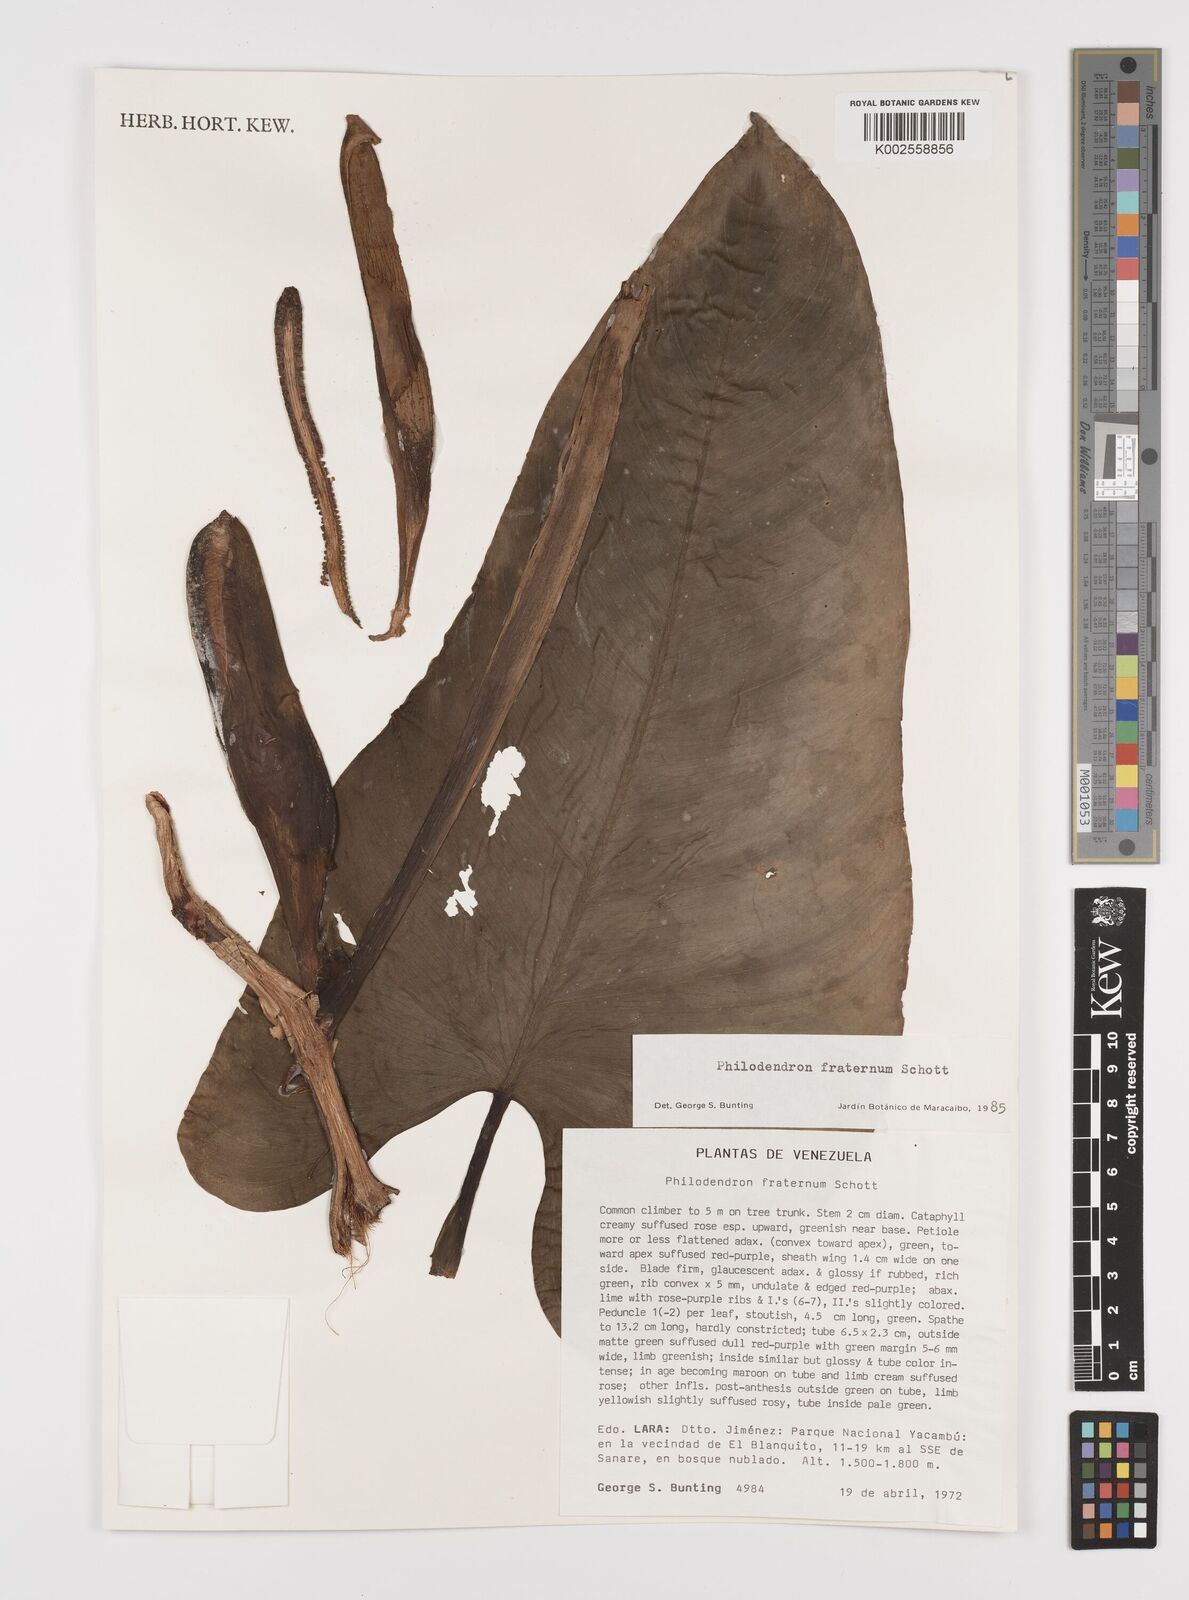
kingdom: Plantae
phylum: Tracheophyta
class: Liliopsida
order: Alismatales
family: Araceae
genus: Philodendron
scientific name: Philodendron fraternum
